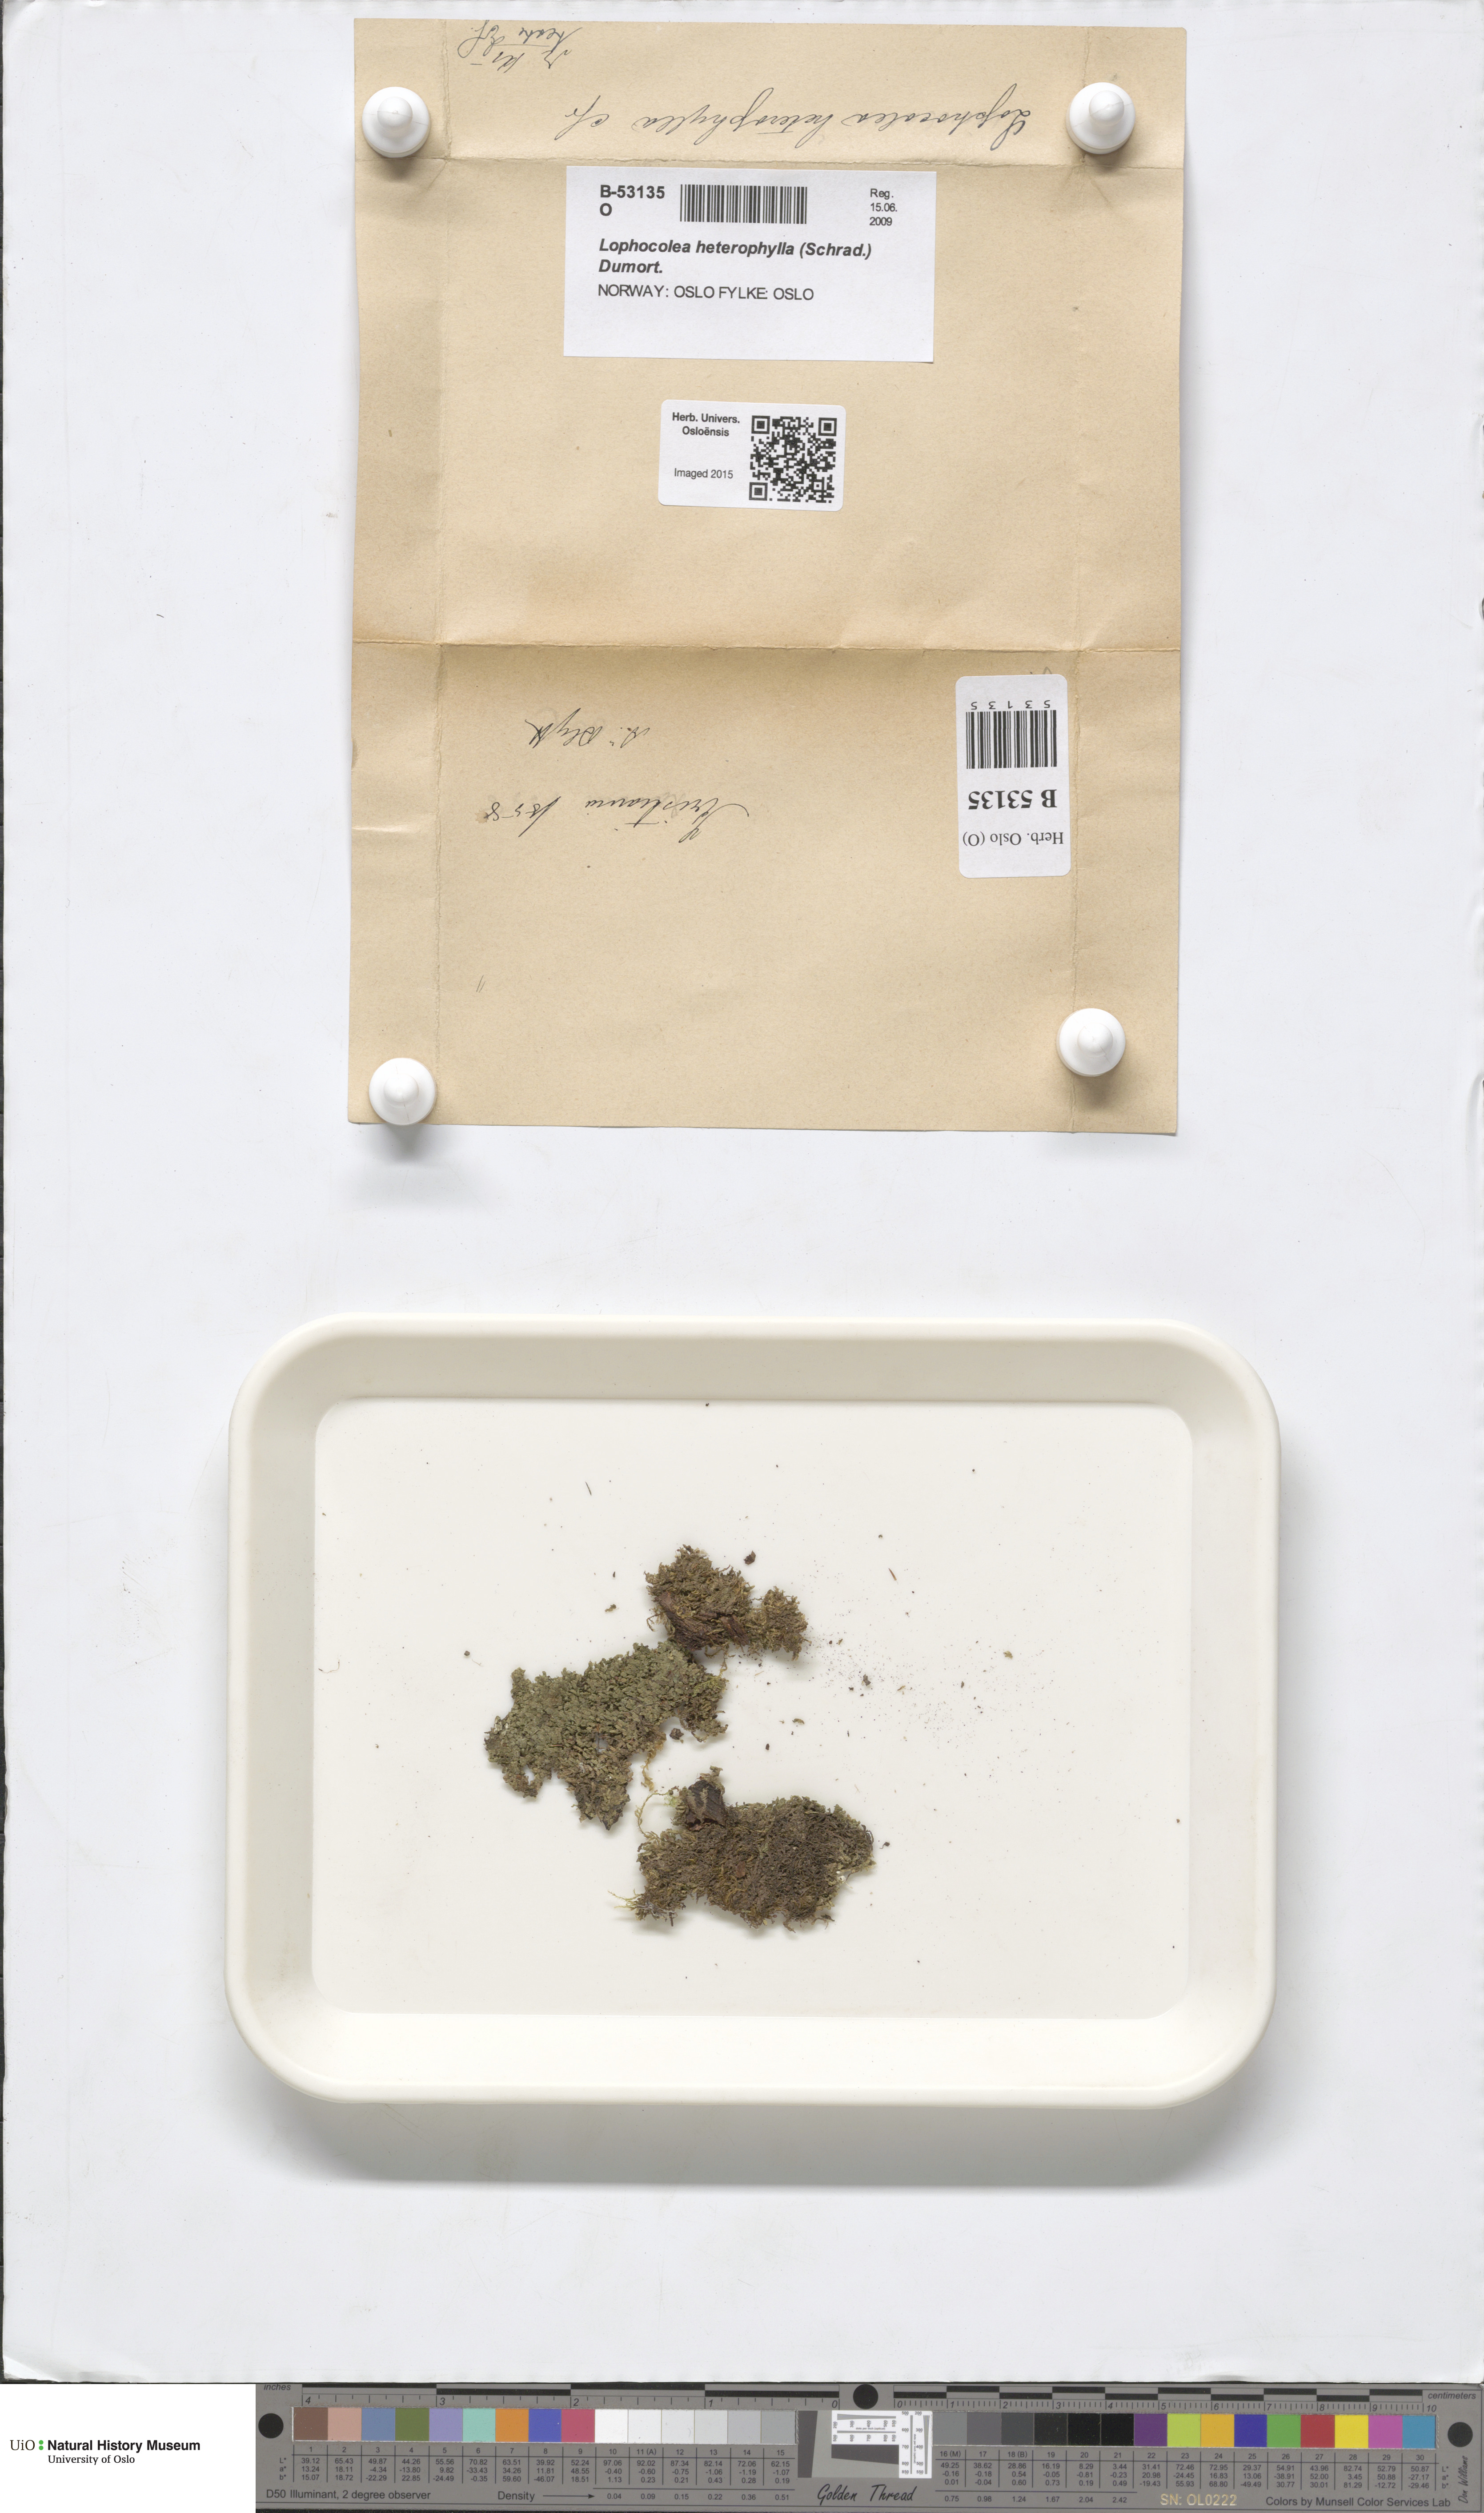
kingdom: Plantae
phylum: Marchantiophyta
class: Jungermanniopsida
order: Jungermanniales
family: Lophocoleaceae
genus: Lophocolea
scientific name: Lophocolea heterophylla
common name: Variable-leaved crestwort
